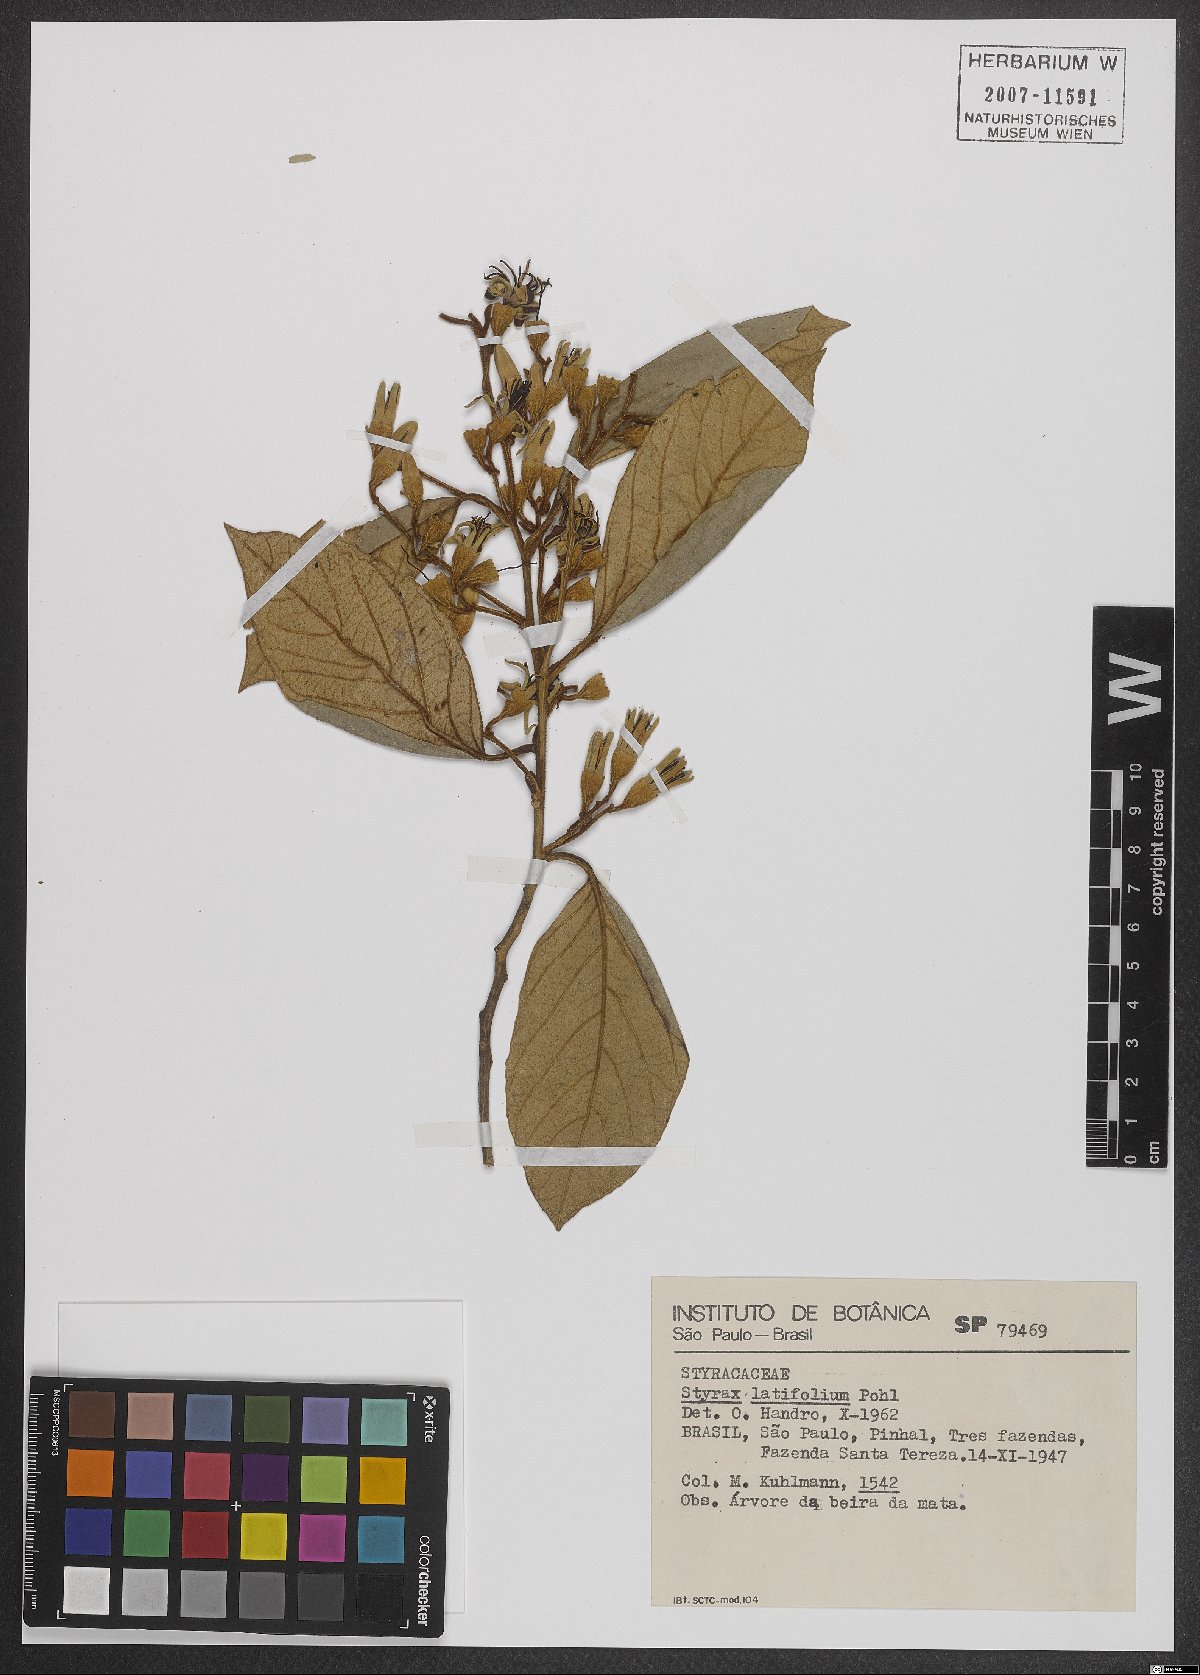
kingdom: Plantae
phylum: Tracheophyta
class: Magnoliopsida
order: Ericales
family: Styracaceae
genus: Styrax
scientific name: Styrax latifolius
